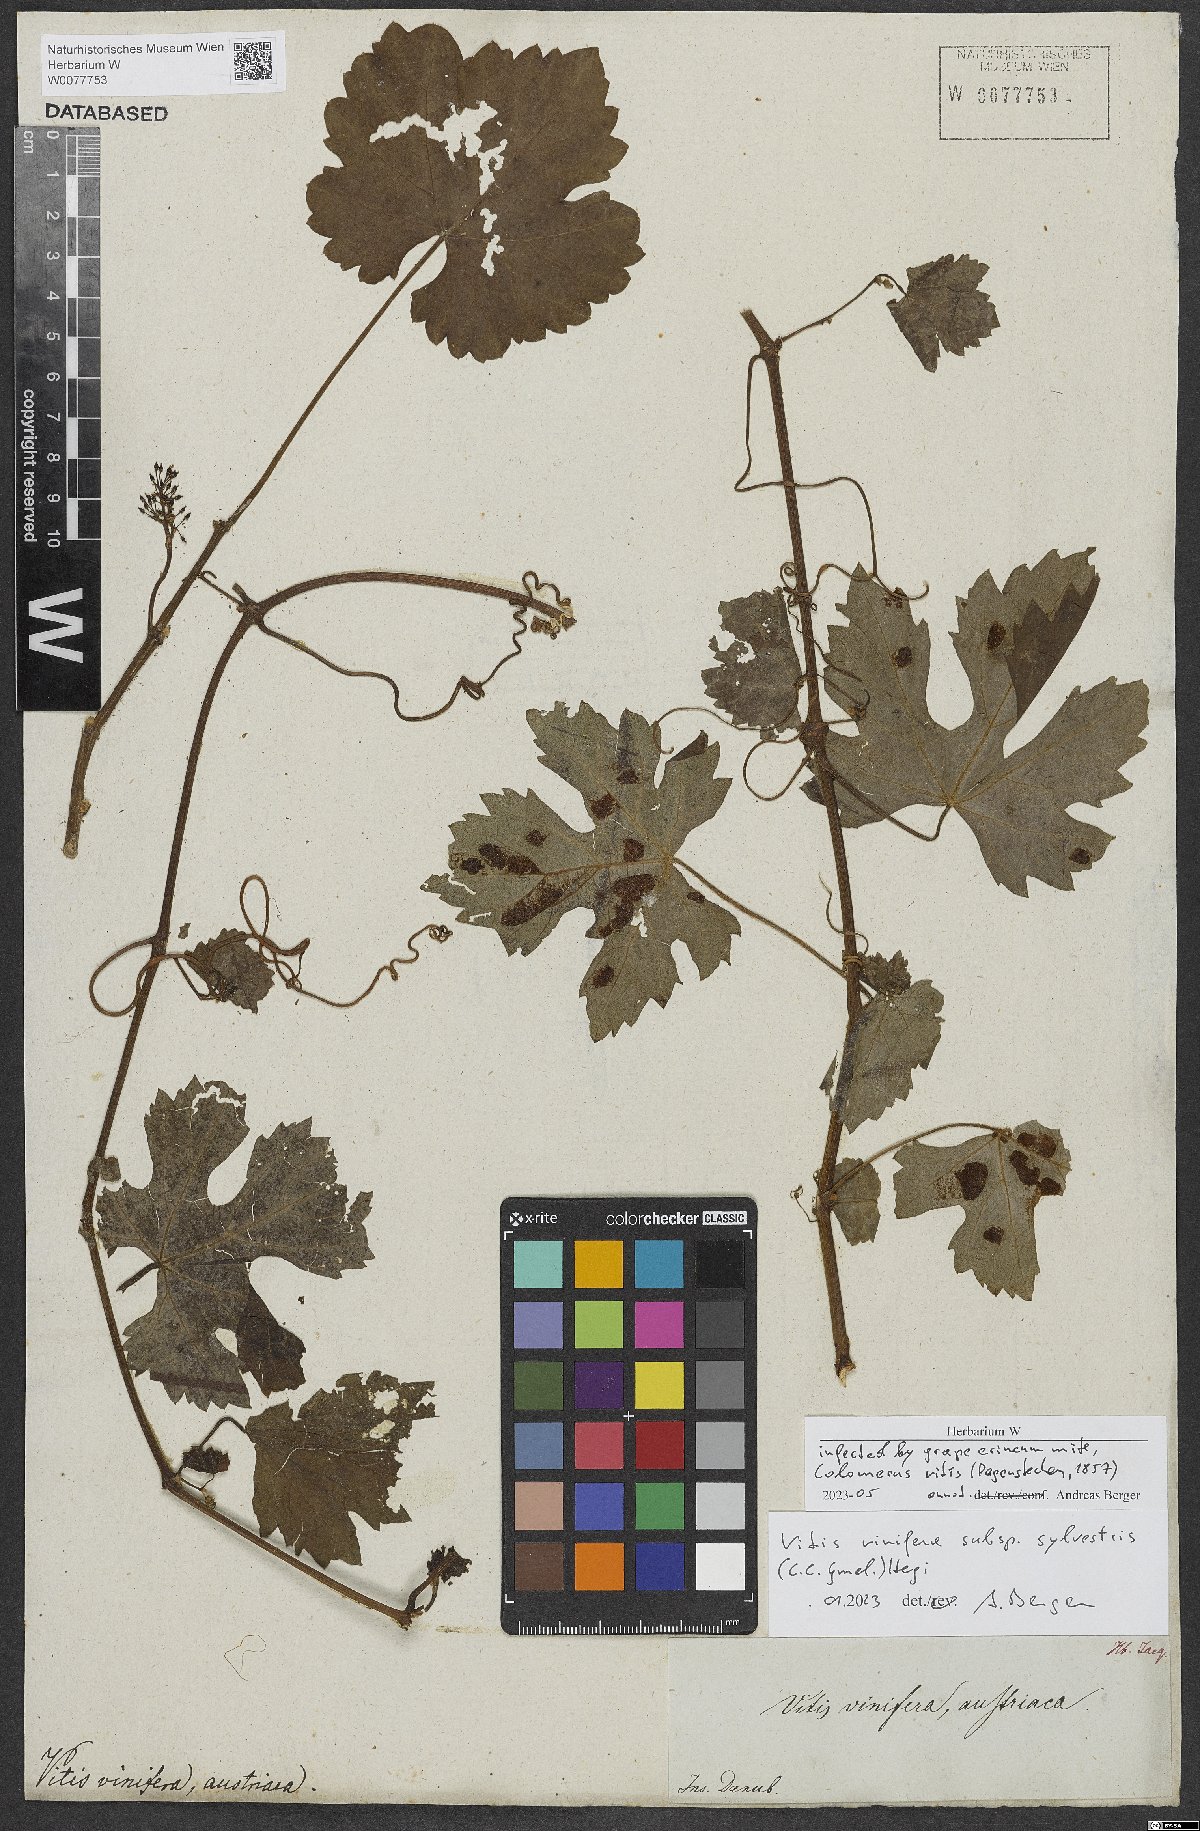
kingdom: Plantae
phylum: Tracheophyta
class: Magnoliopsida
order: Vitales
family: Vitaceae
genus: Vitis
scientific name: Vitis gmelinii
